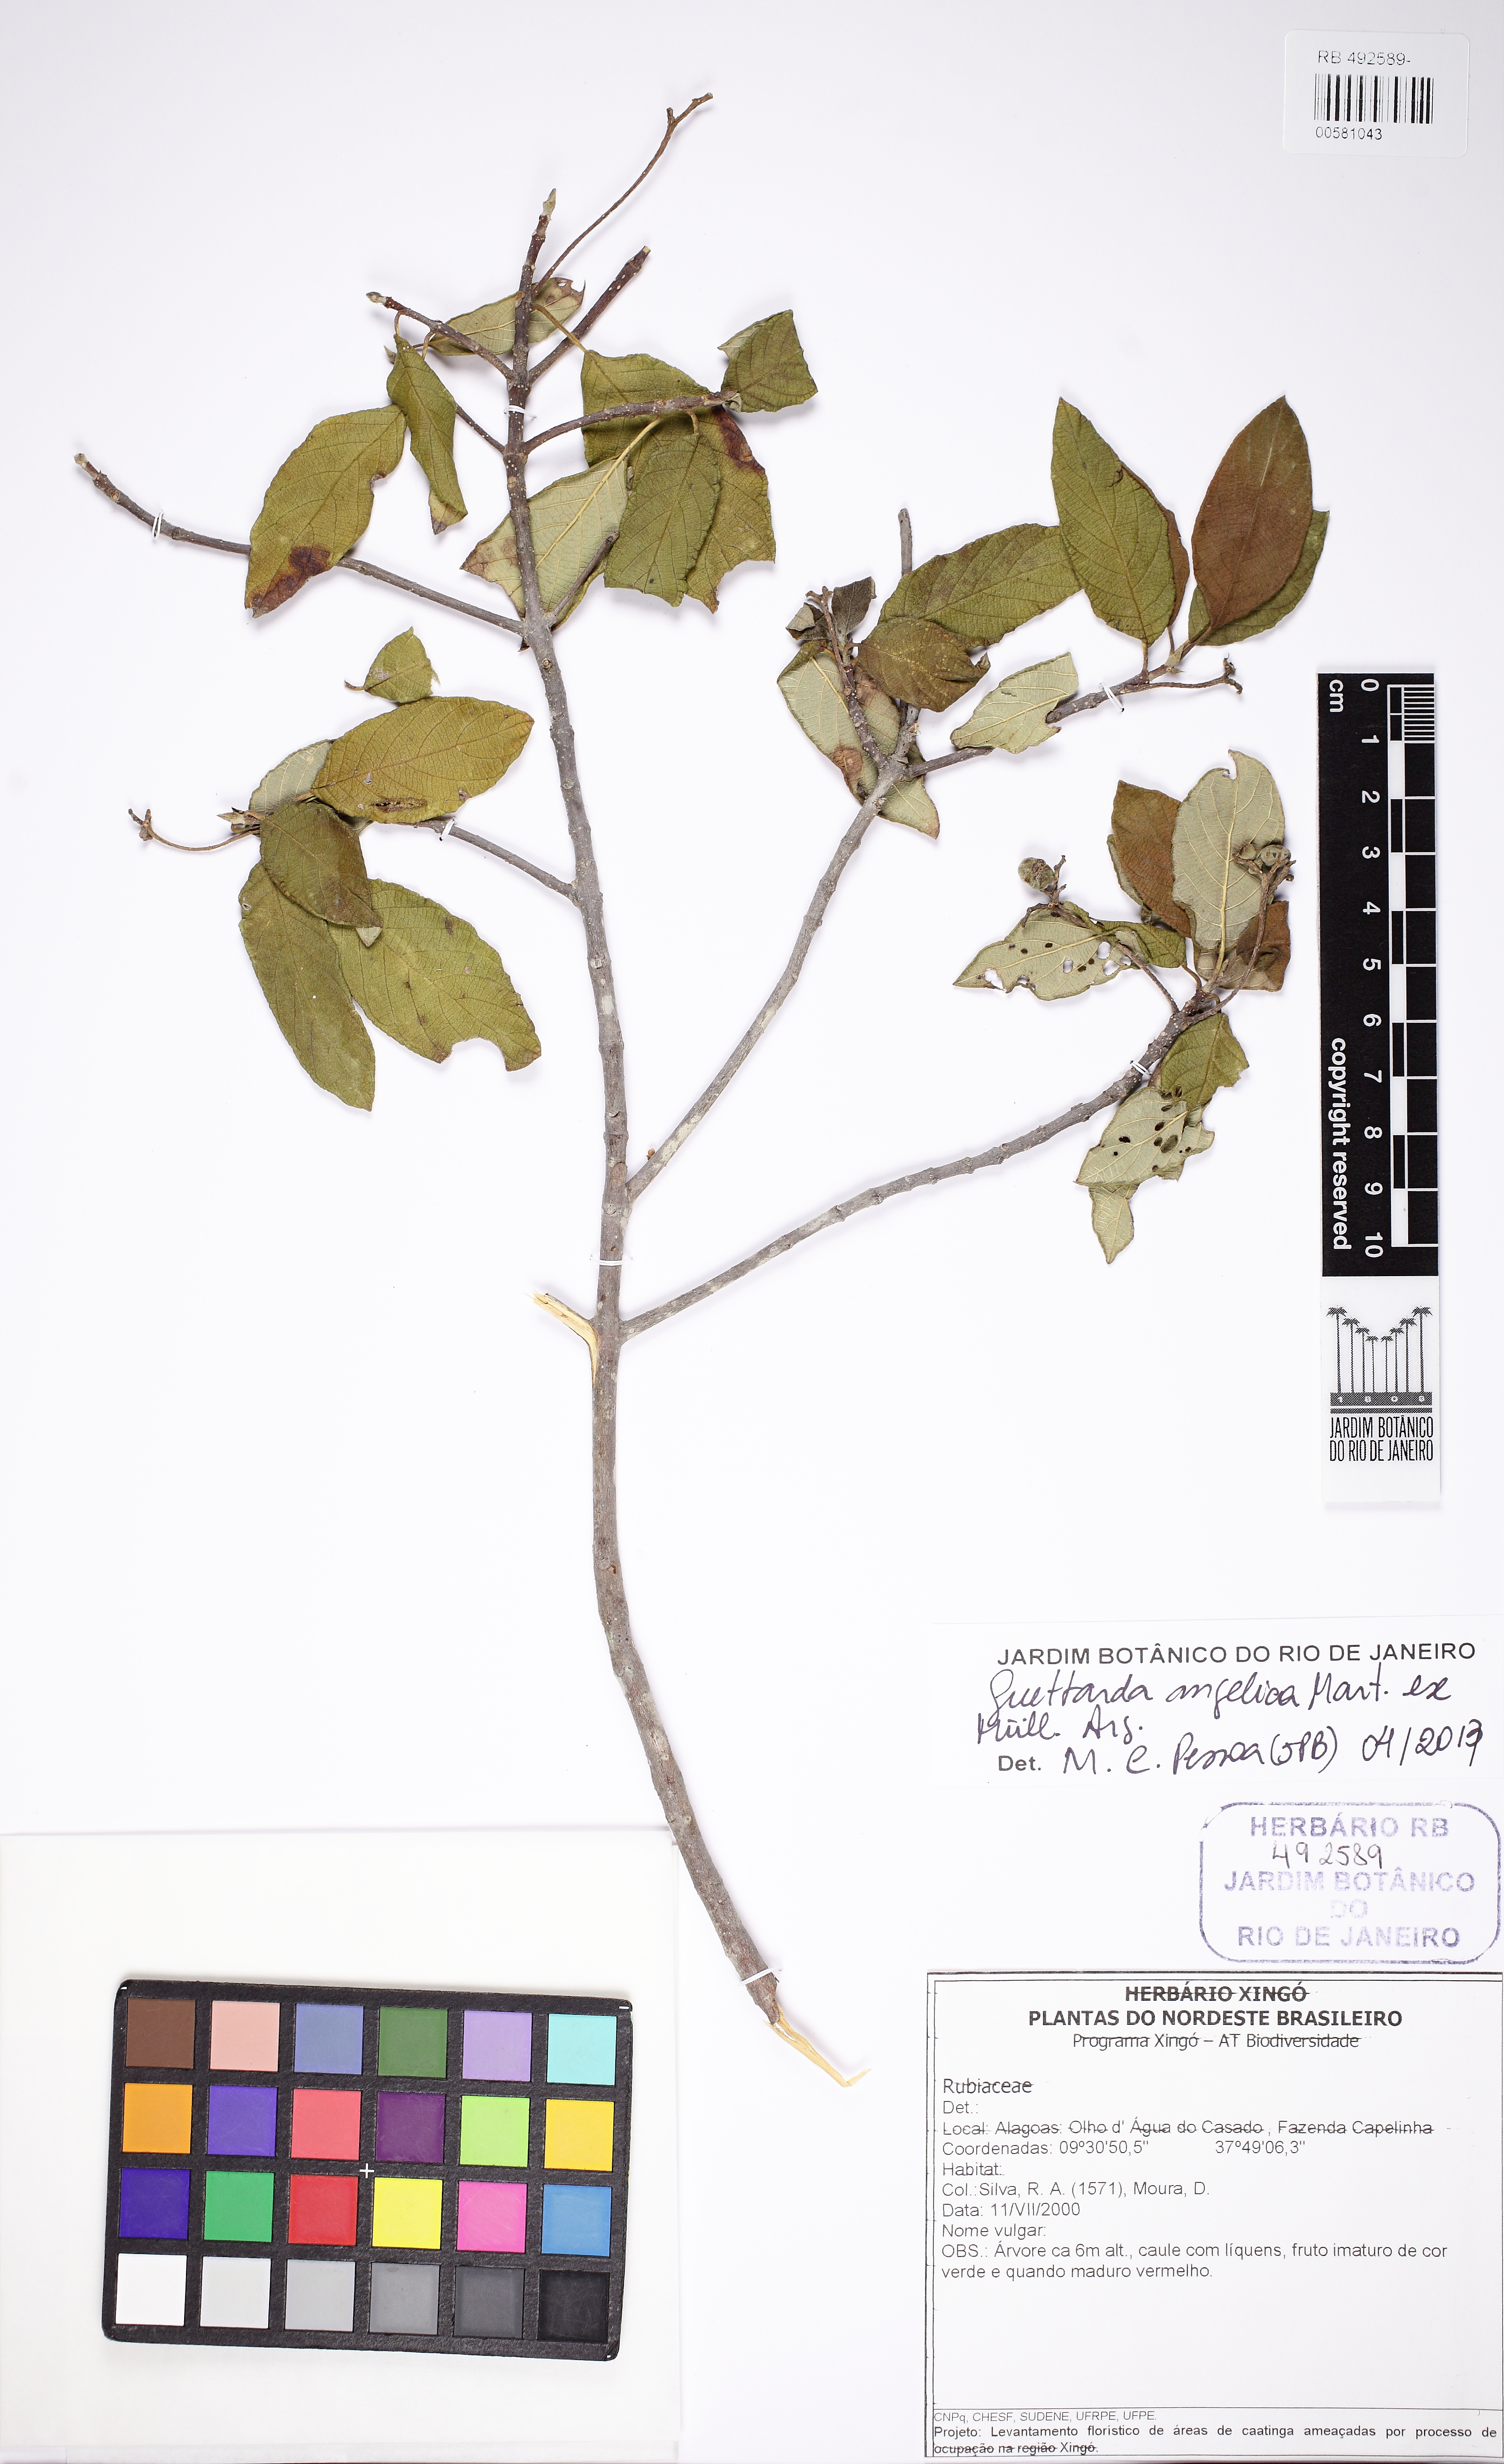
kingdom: Plantae
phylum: Tracheophyta
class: Magnoliopsida
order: Gentianales
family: Rubiaceae
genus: Guettarda
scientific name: Guettarda angelica
